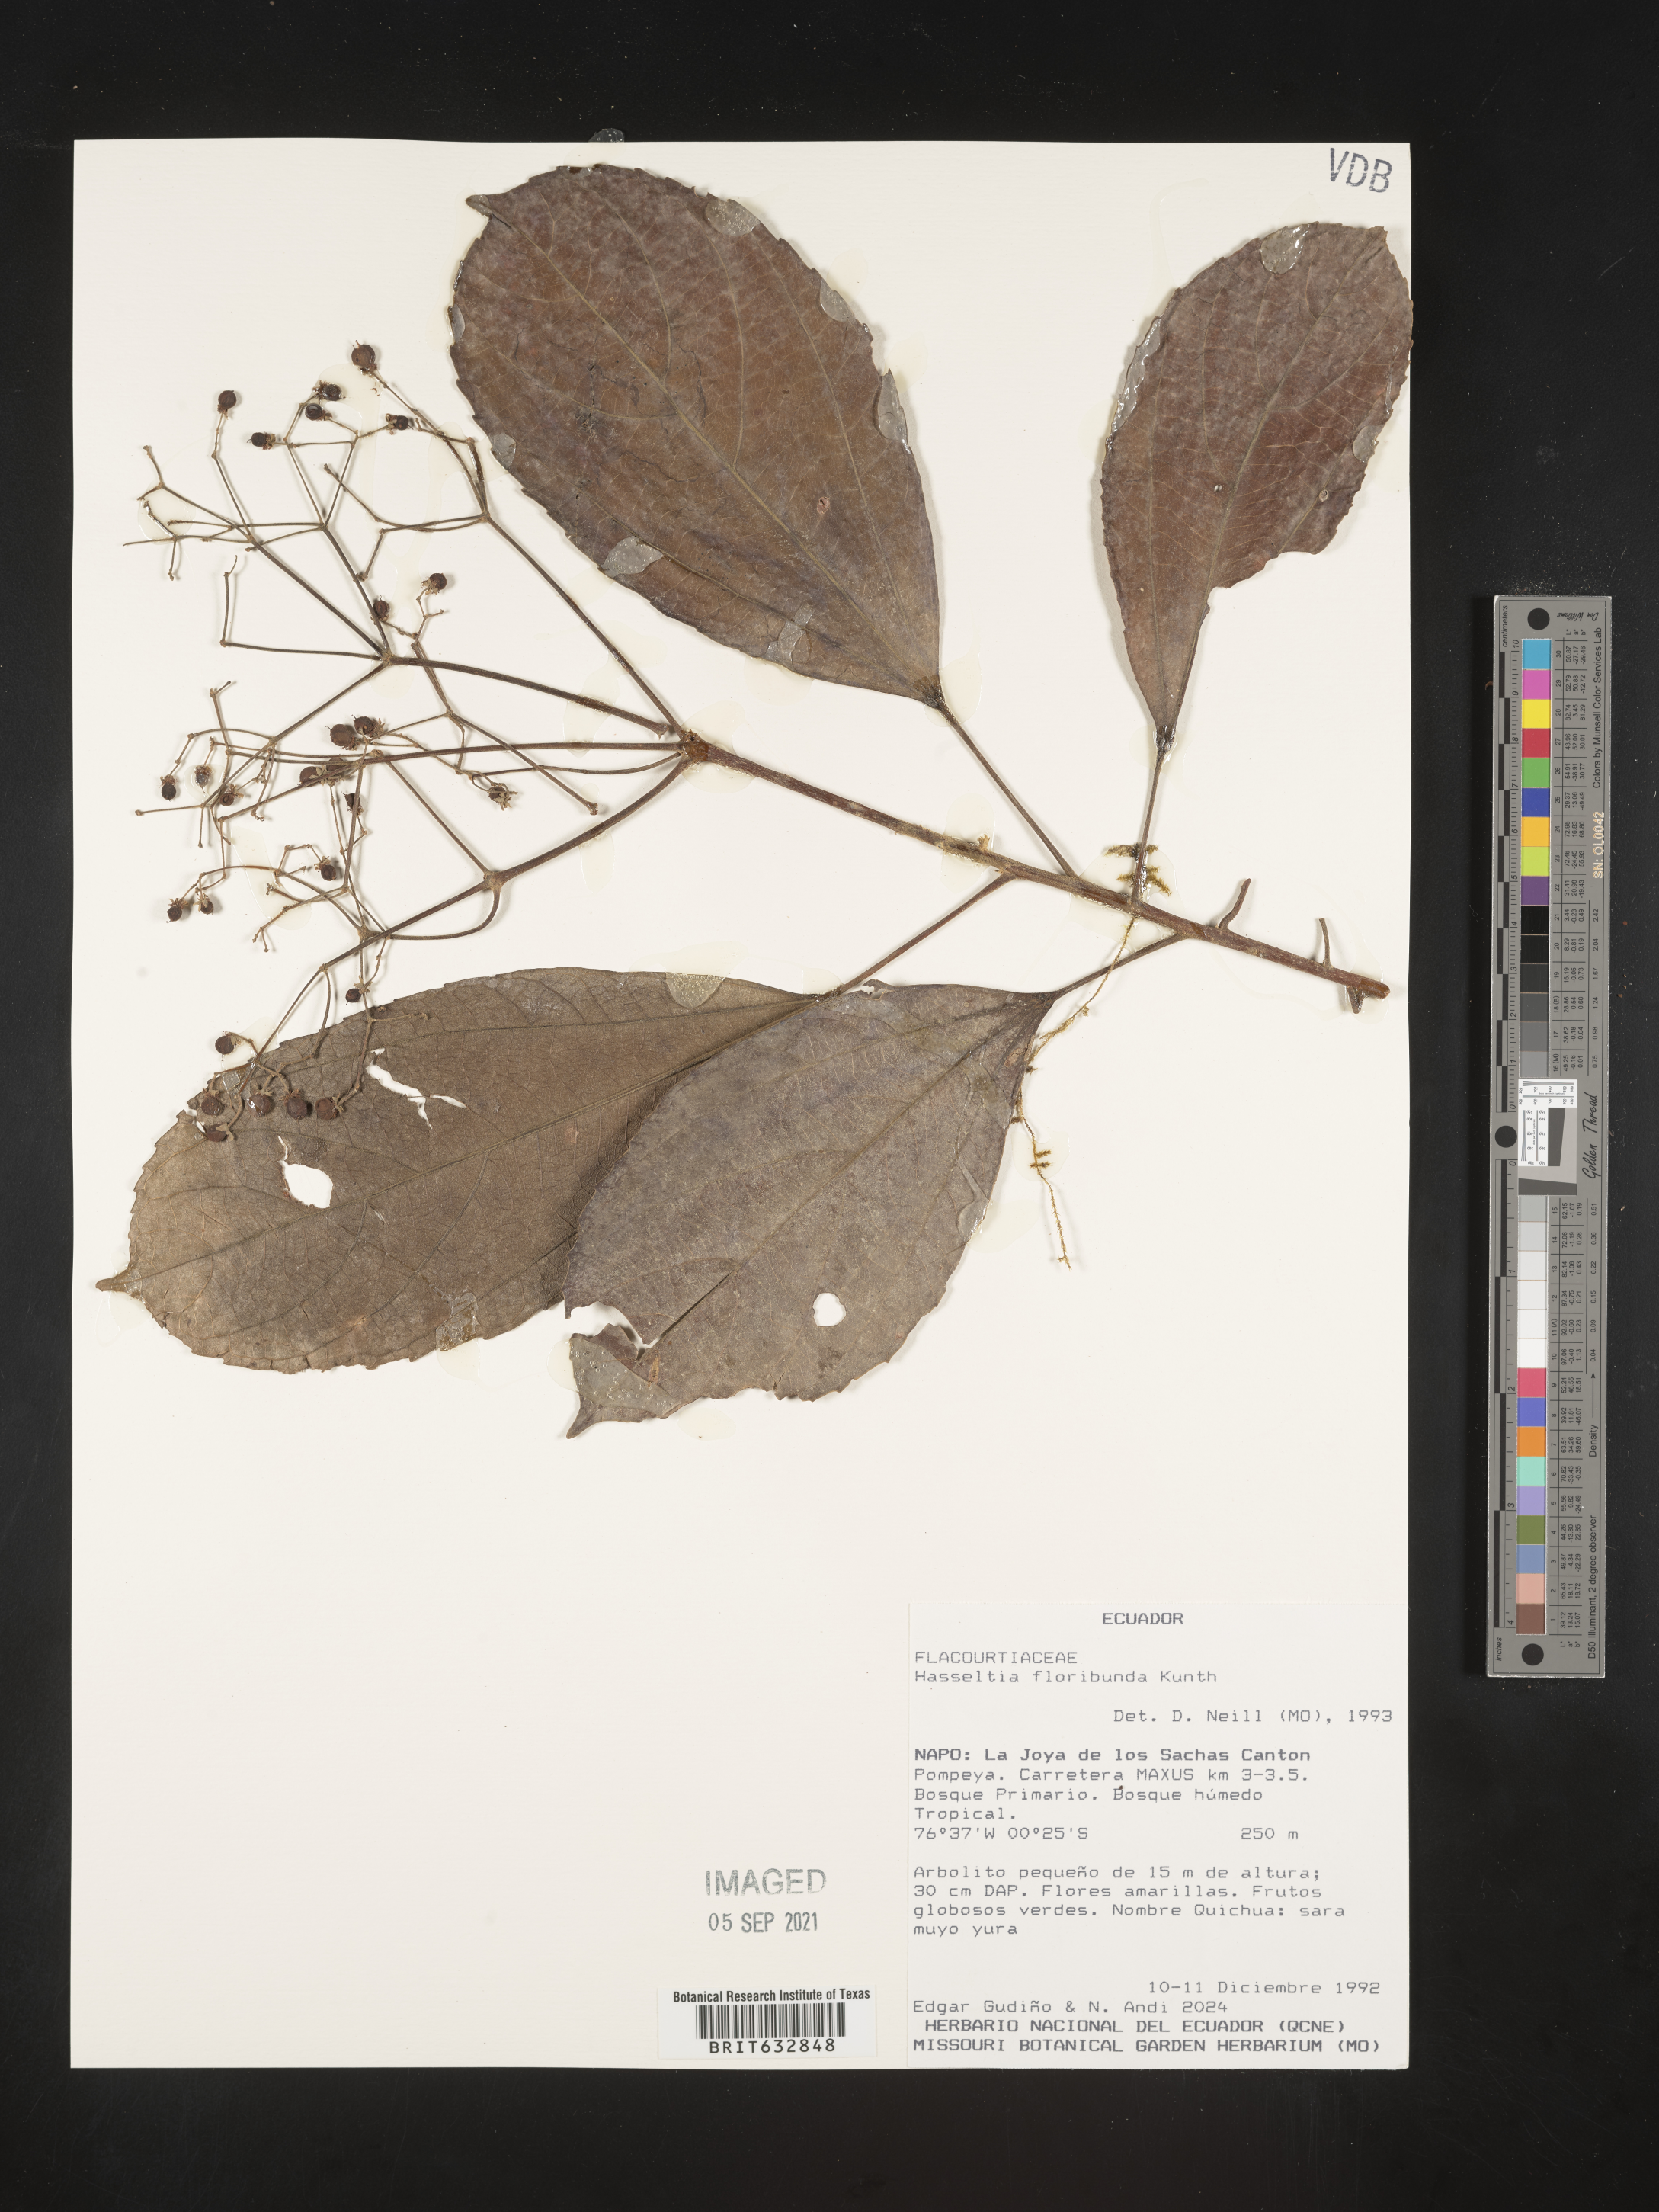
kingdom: Plantae
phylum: Tracheophyta
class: Magnoliopsida
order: Malpighiales
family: Salicaceae
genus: Hasseltia
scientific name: Hasseltia
